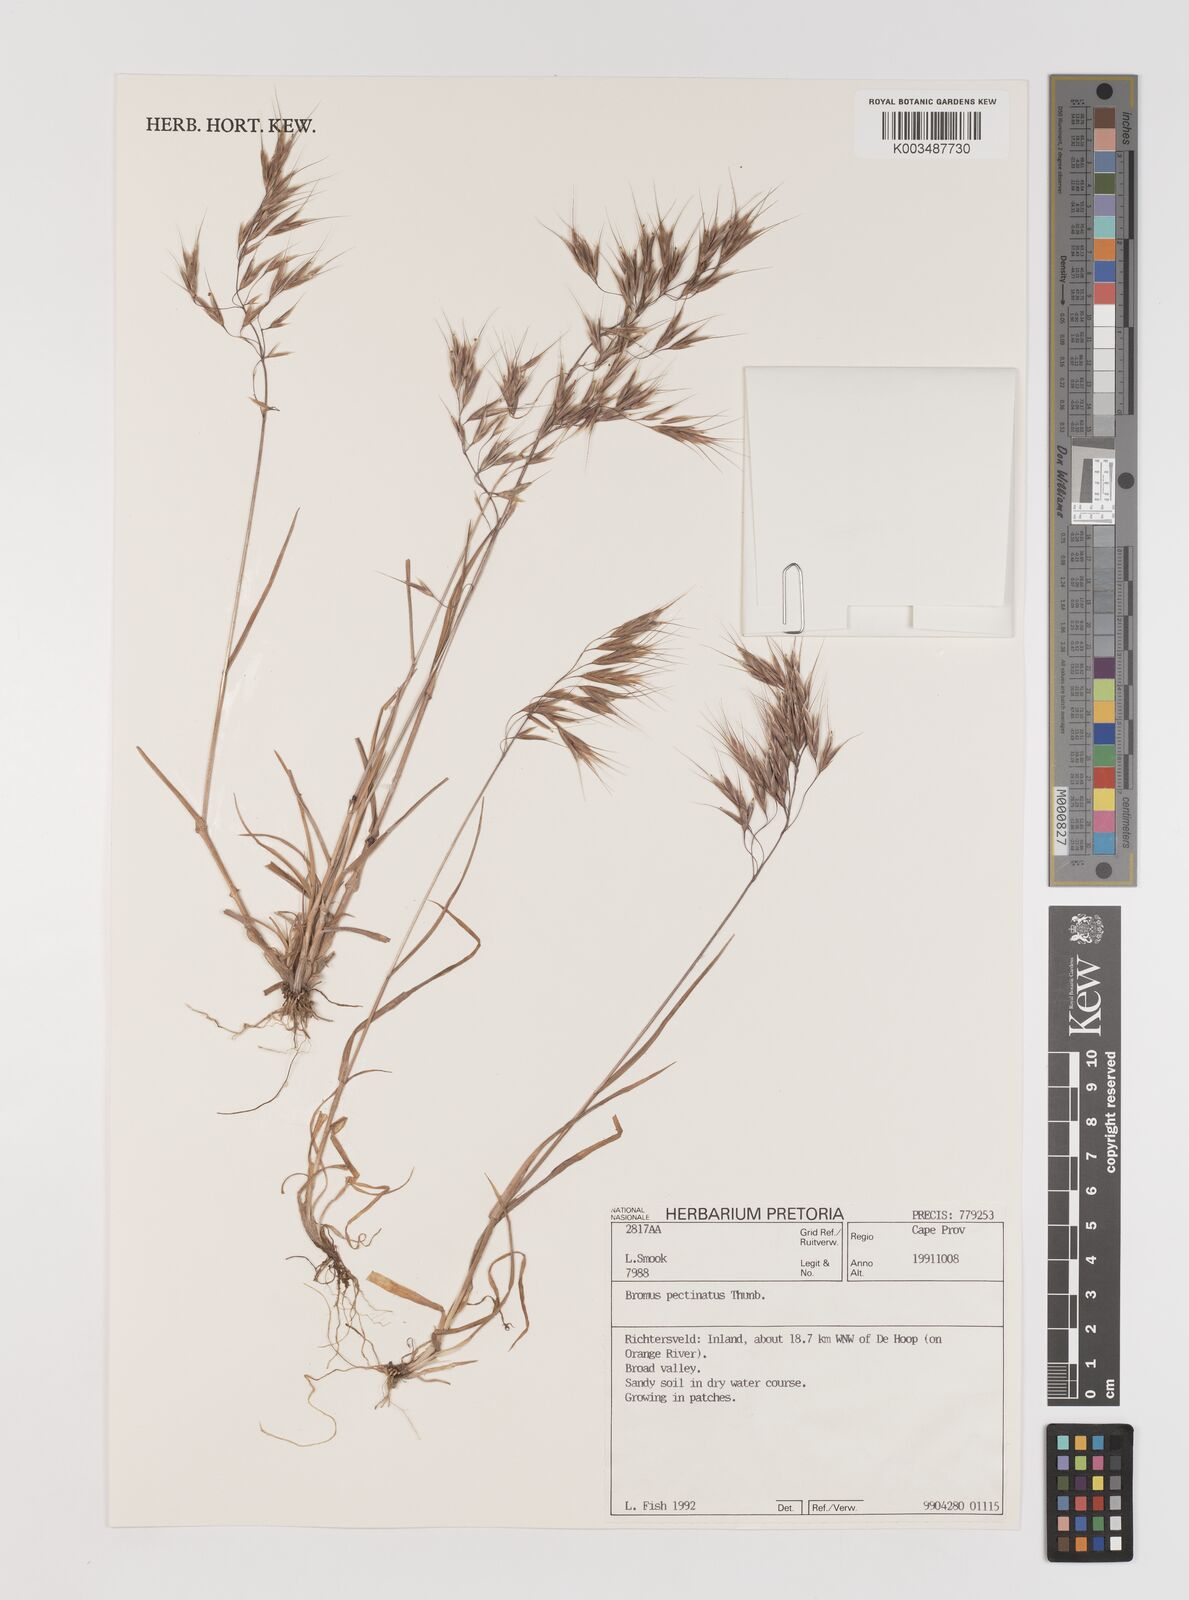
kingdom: Plantae
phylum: Tracheophyta
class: Liliopsida
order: Poales
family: Poaceae
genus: Bromus
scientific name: Bromus pectinatus
